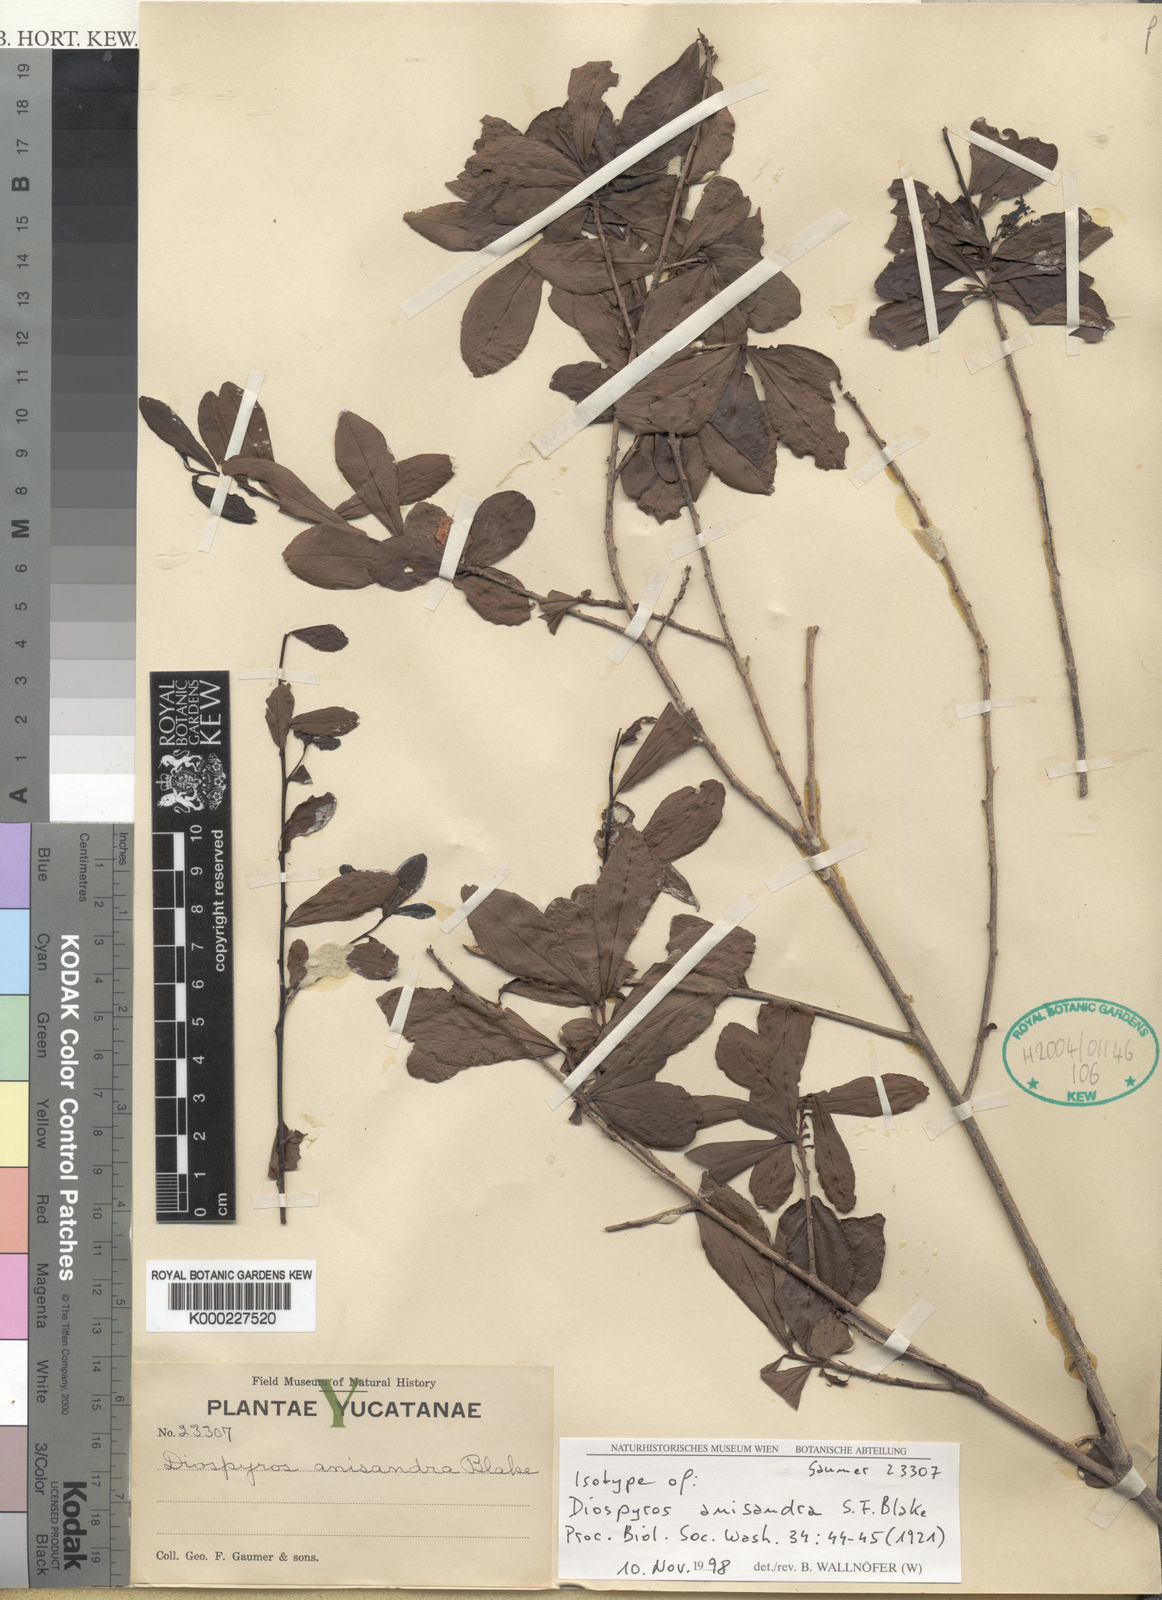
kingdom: Plantae
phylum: Tracheophyta
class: Magnoliopsida
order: Ericales
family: Ebenaceae
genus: Diospyros
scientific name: Diospyros
